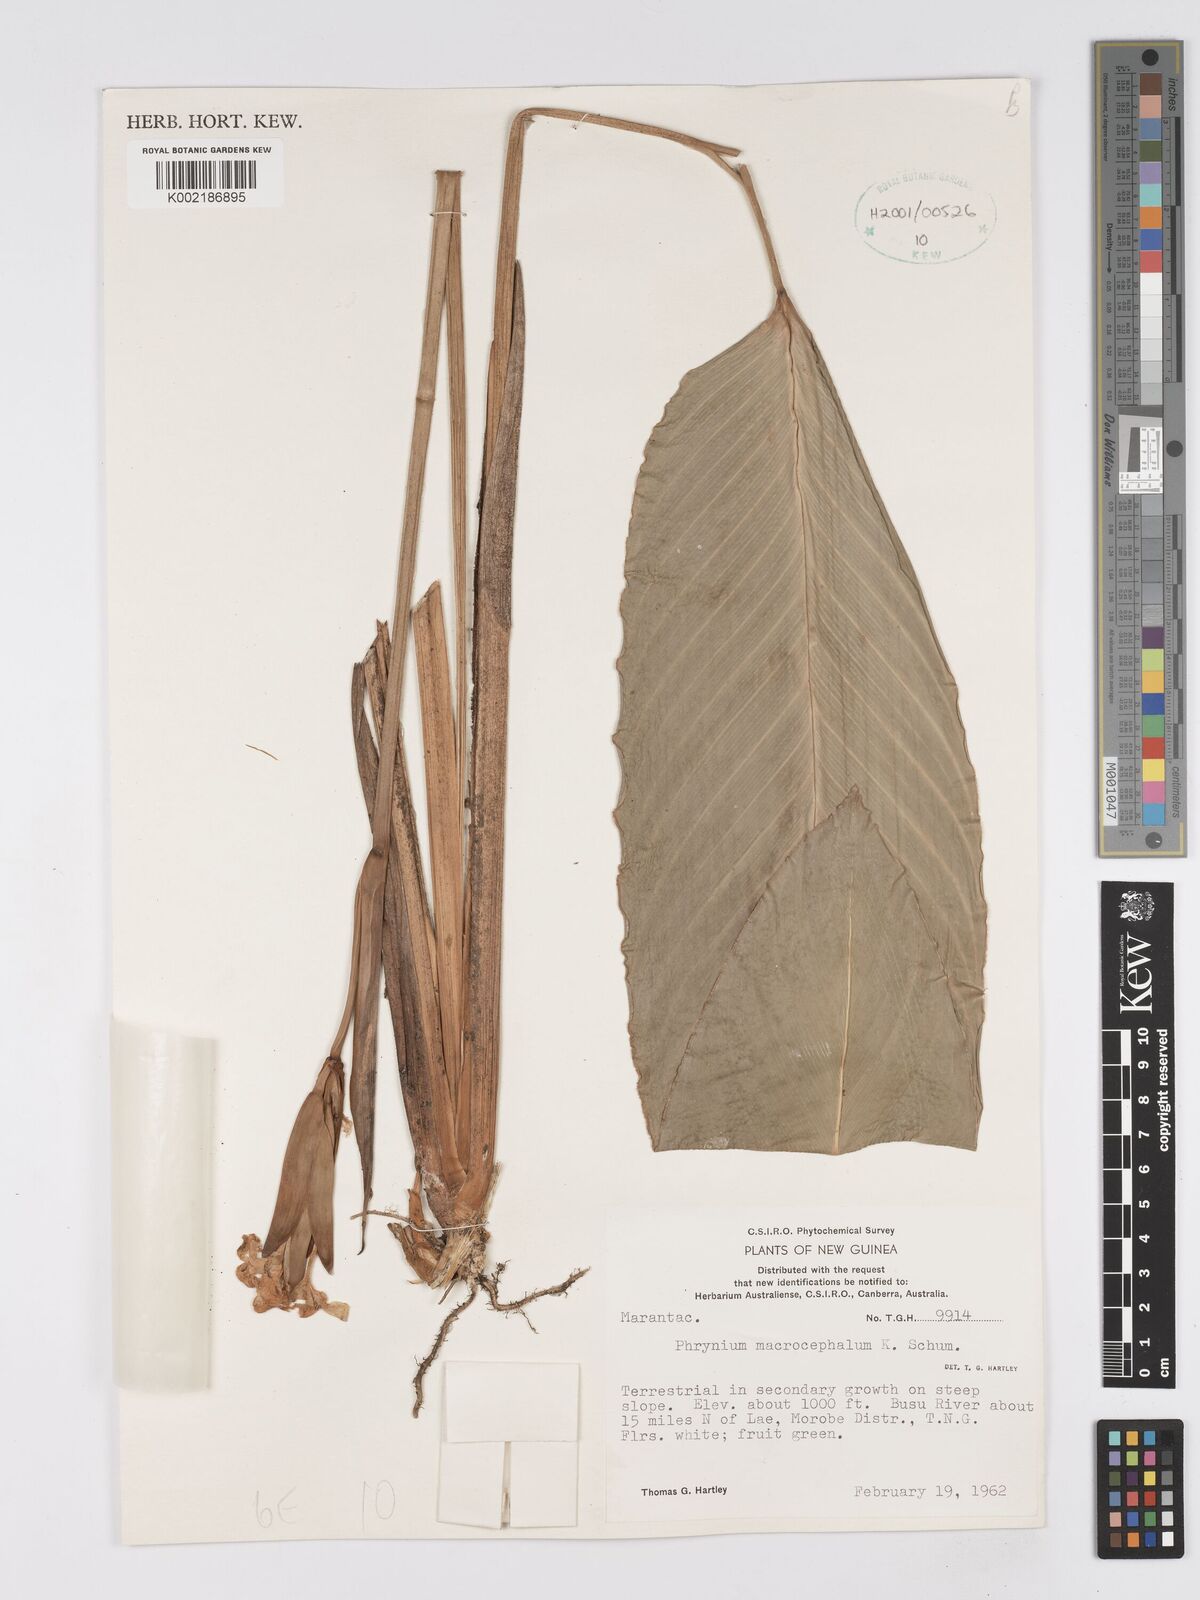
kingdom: Plantae
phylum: Tracheophyta
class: Liliopsida
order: Zingiberales
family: Marantaceae
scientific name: Marantaceae
